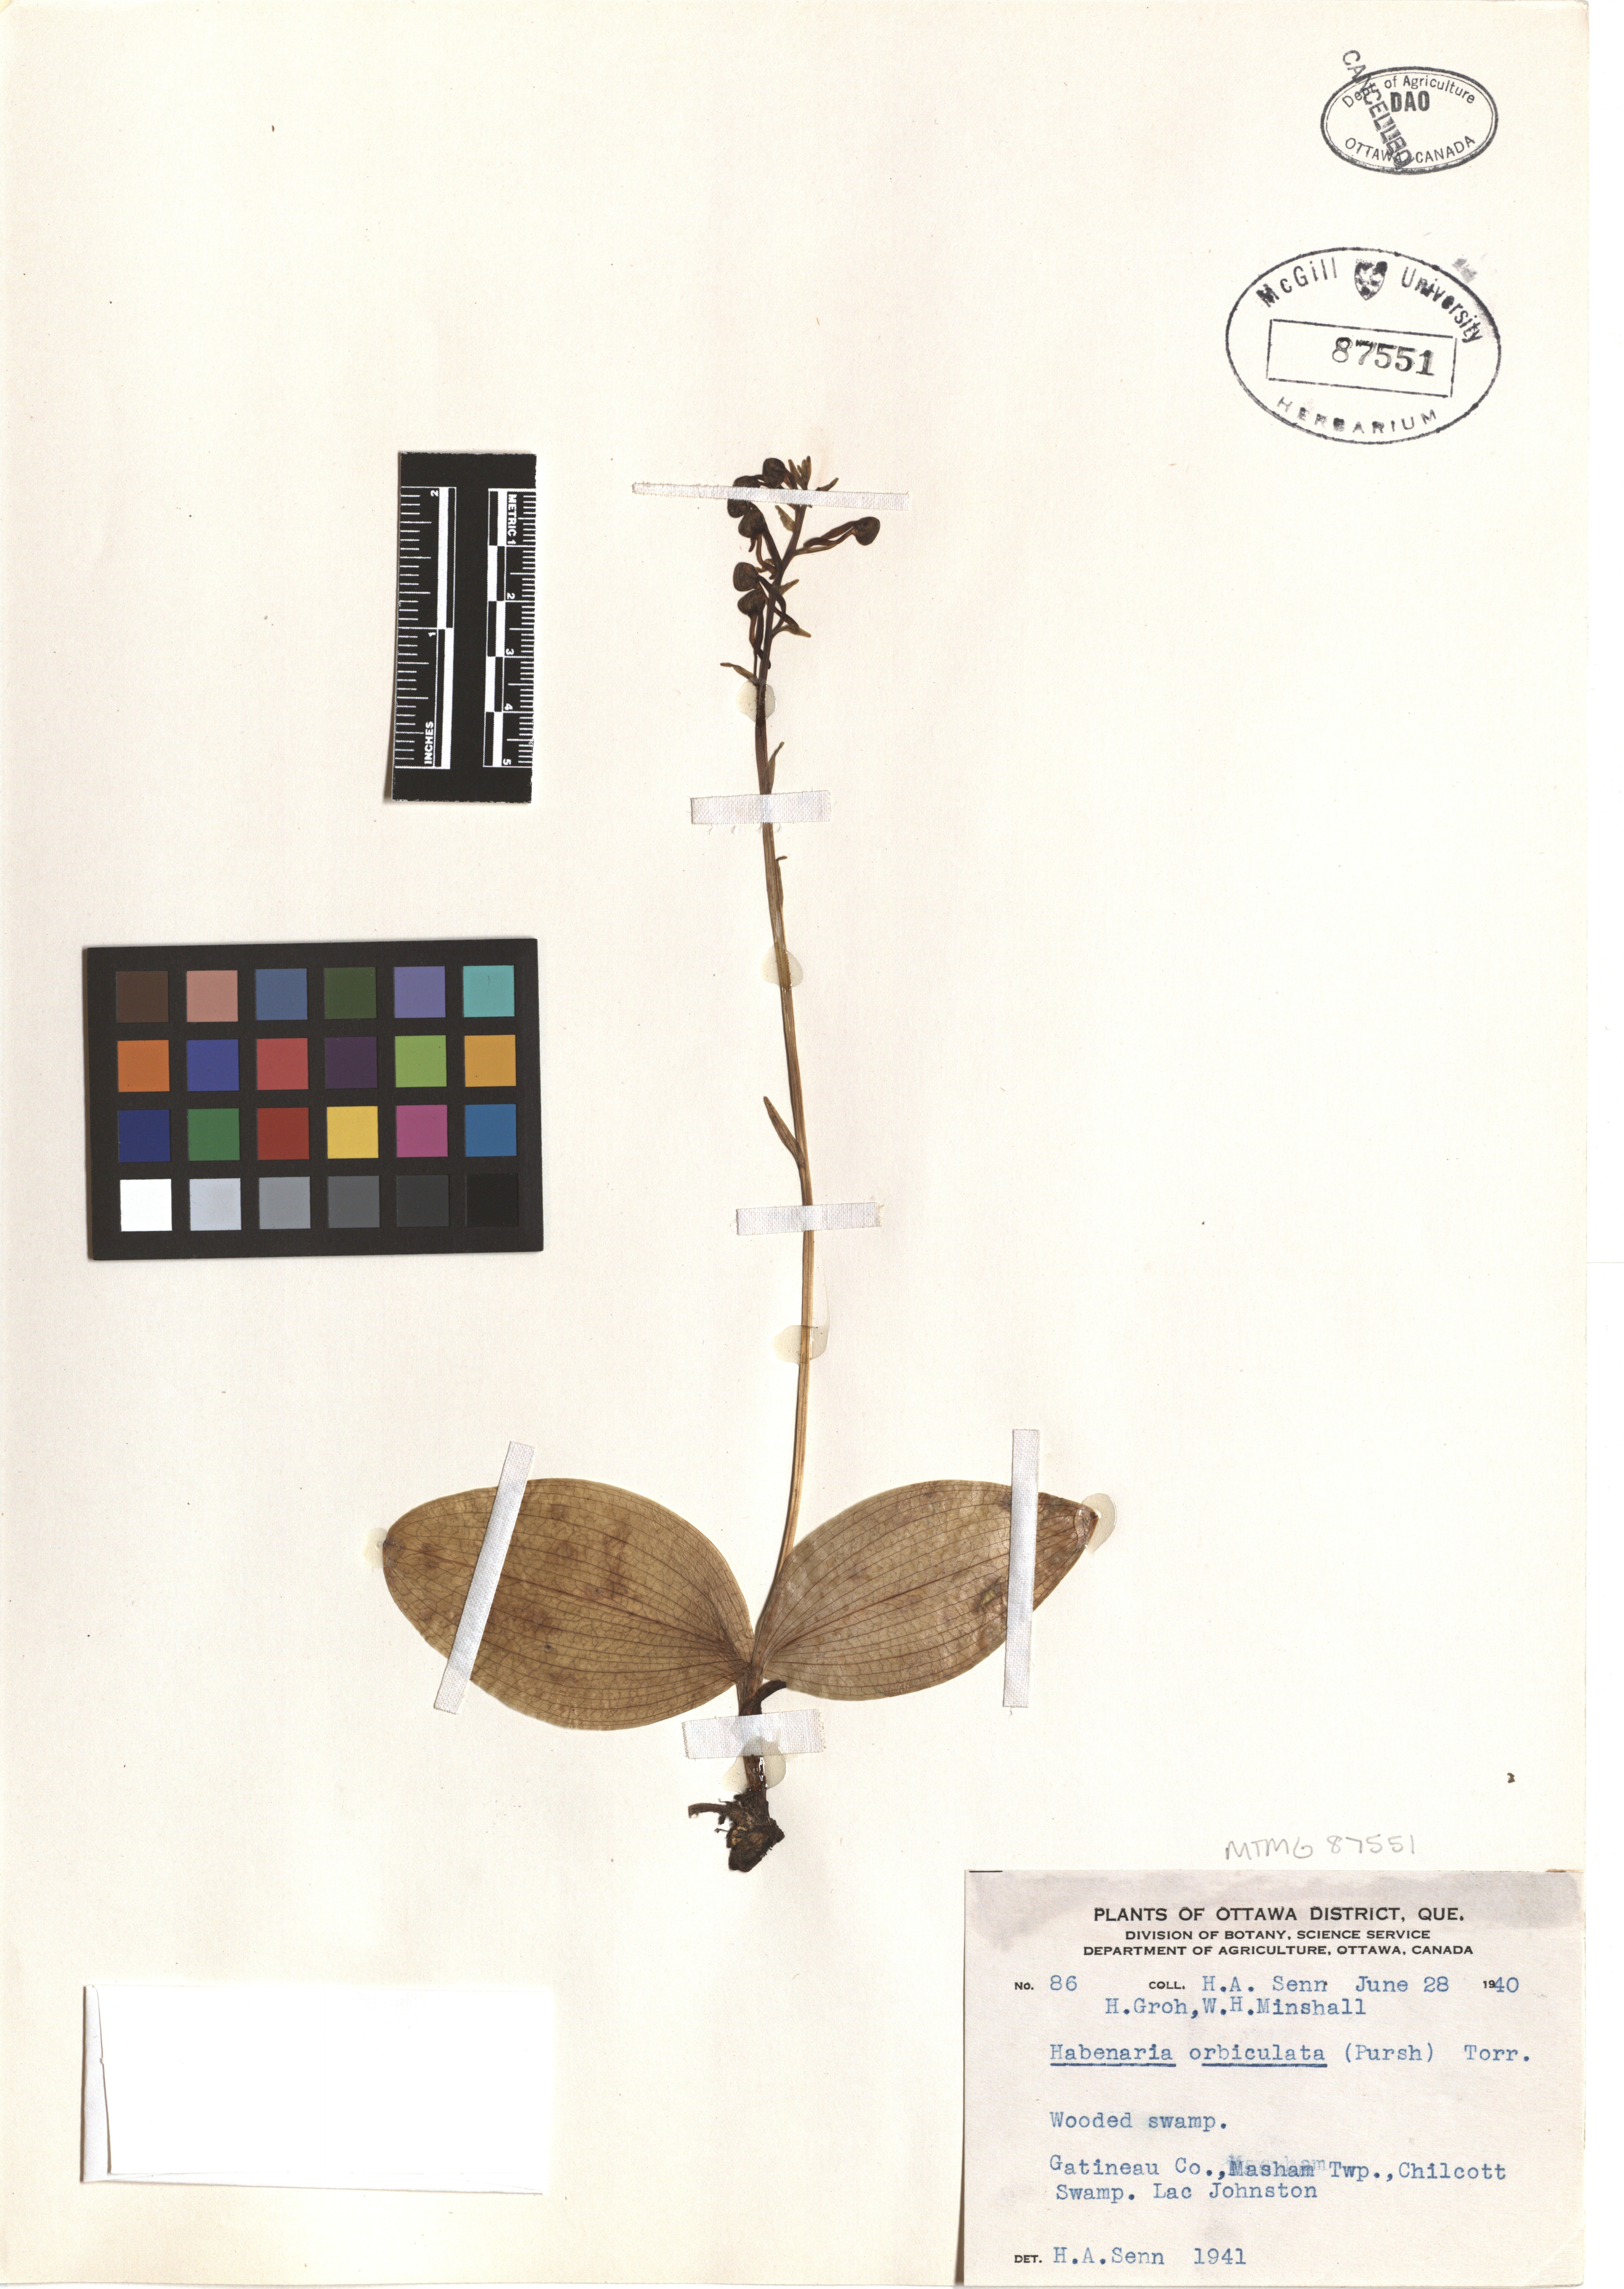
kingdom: Plantae
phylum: Tracheophyta
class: Liliopsida
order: Asparagales
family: Orchidaceae
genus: Platanthera
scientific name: Platanthera orbiculata
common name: Large round-leaved orchid
